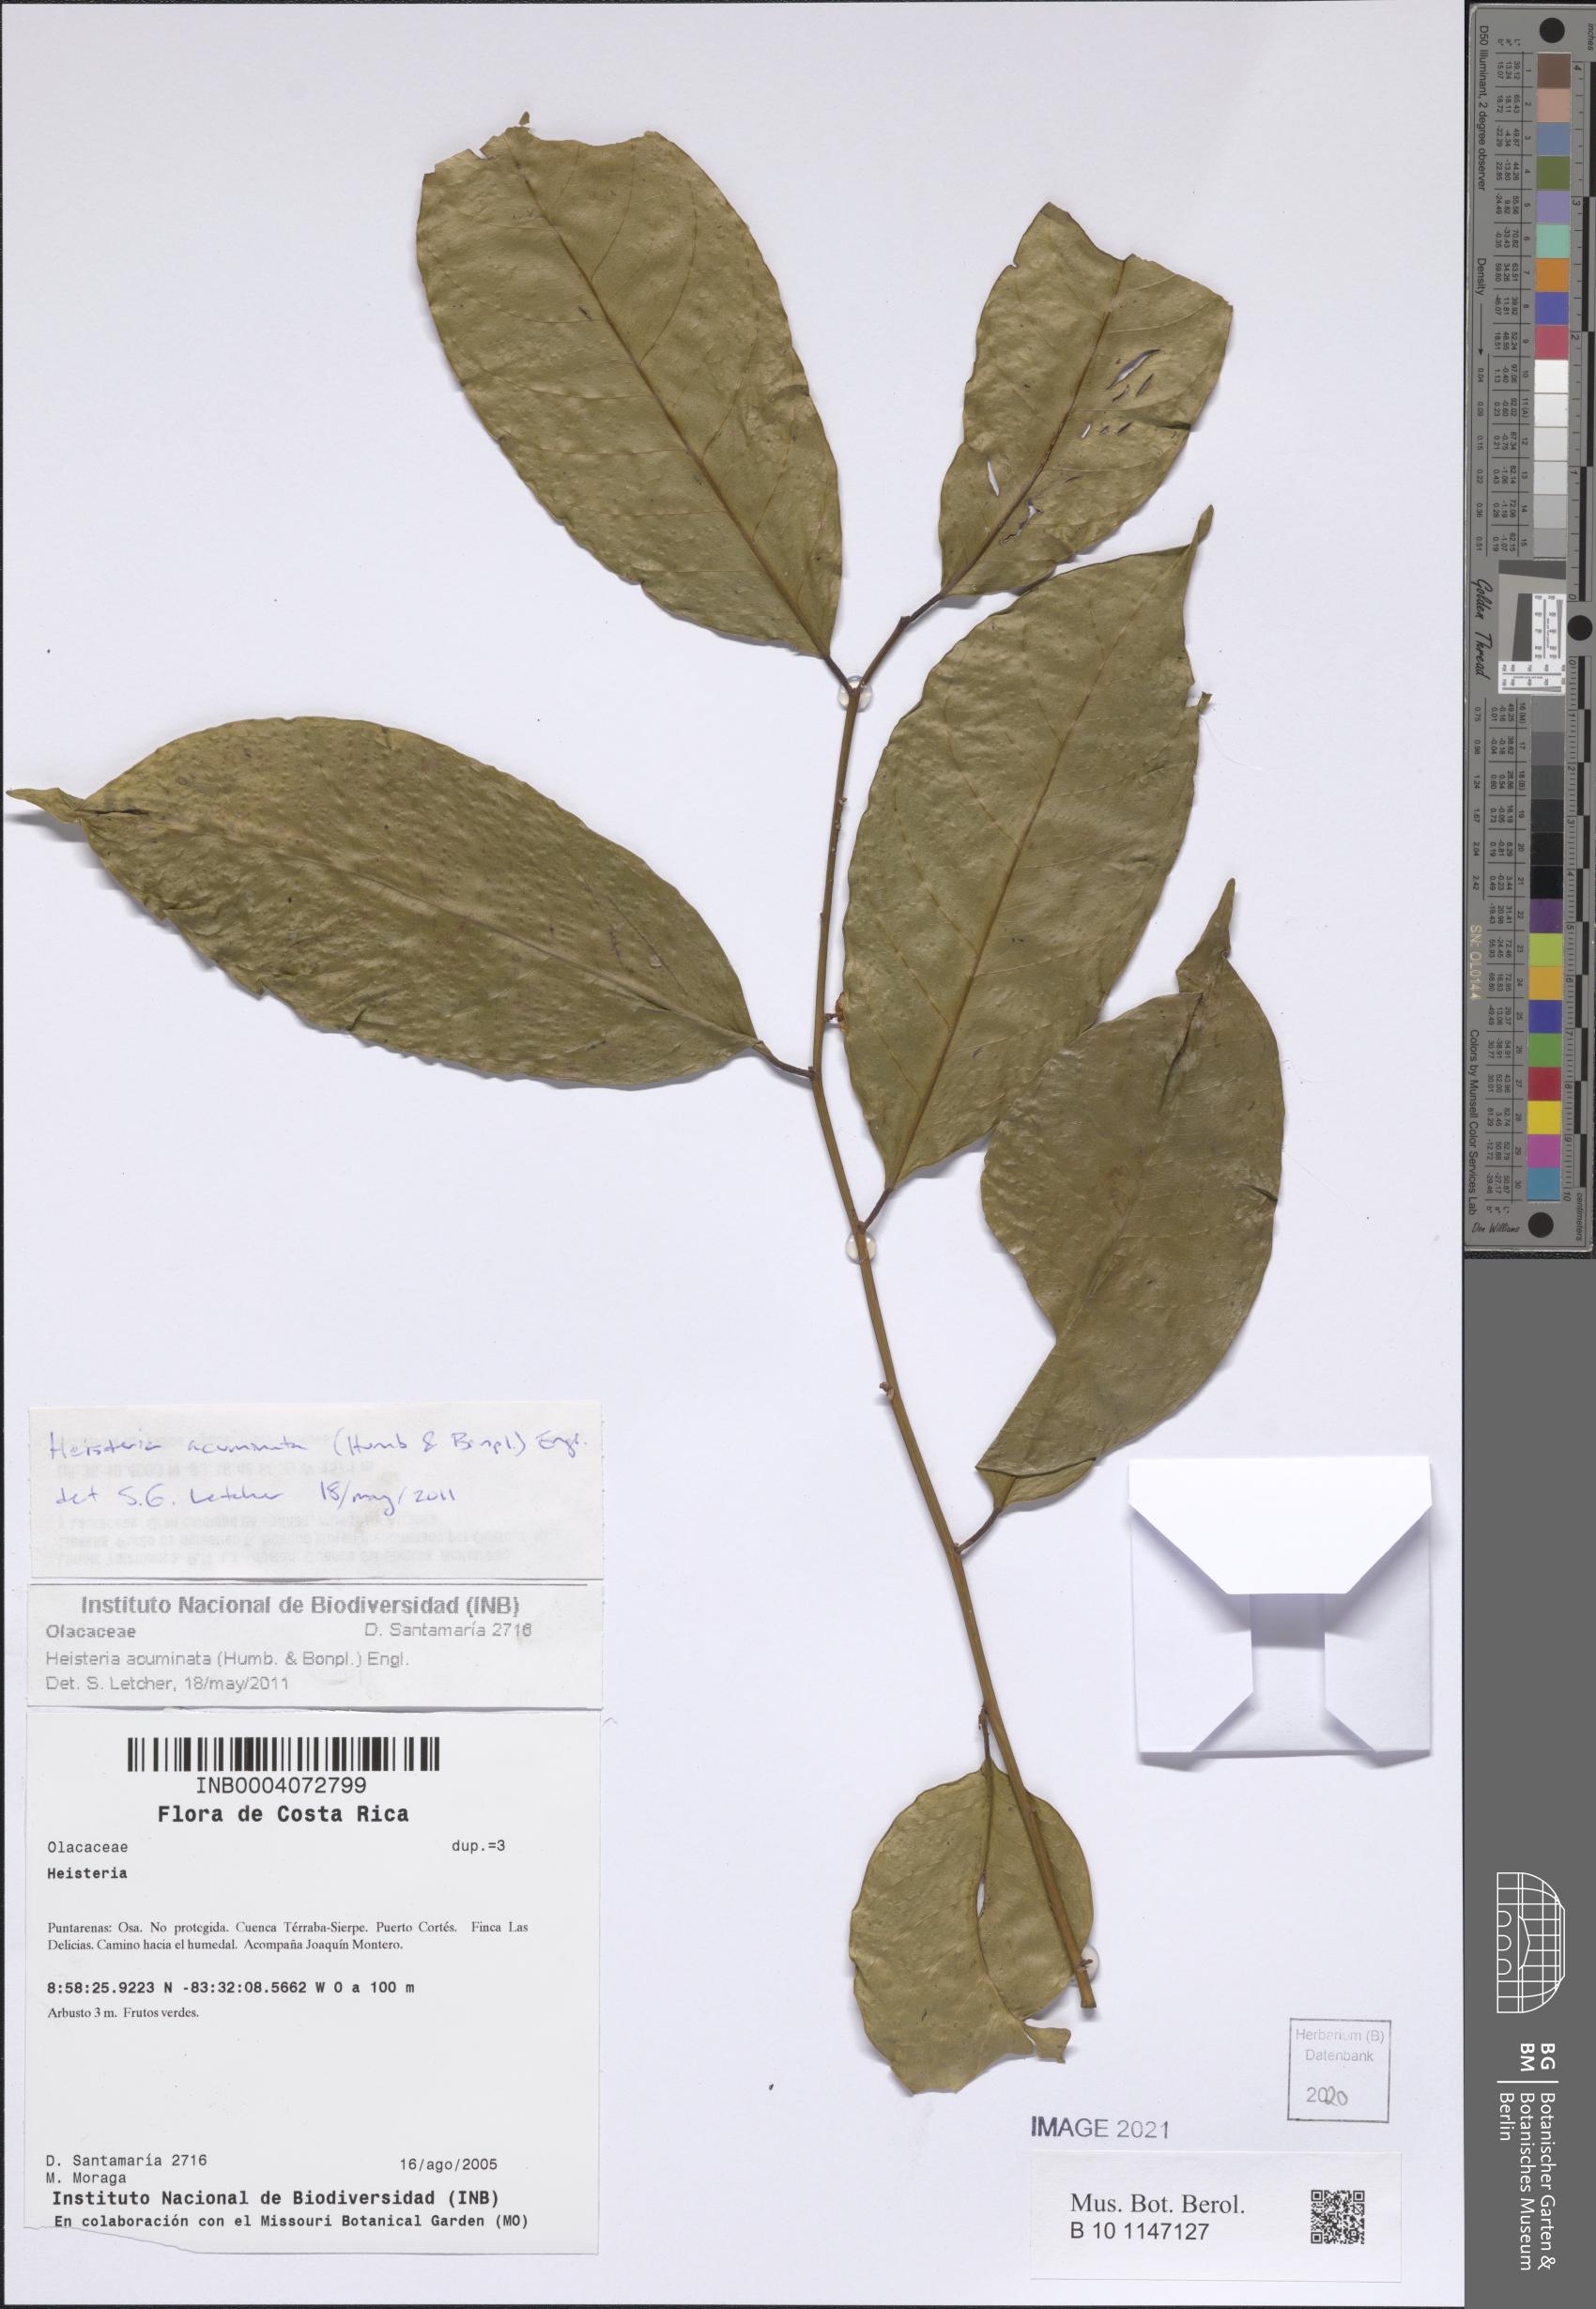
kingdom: Plantae
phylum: Tracheophyta
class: Magnoliopsida
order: Santalales
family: Erythropalaceae
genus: Heisteria
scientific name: Heisteria acuminata
